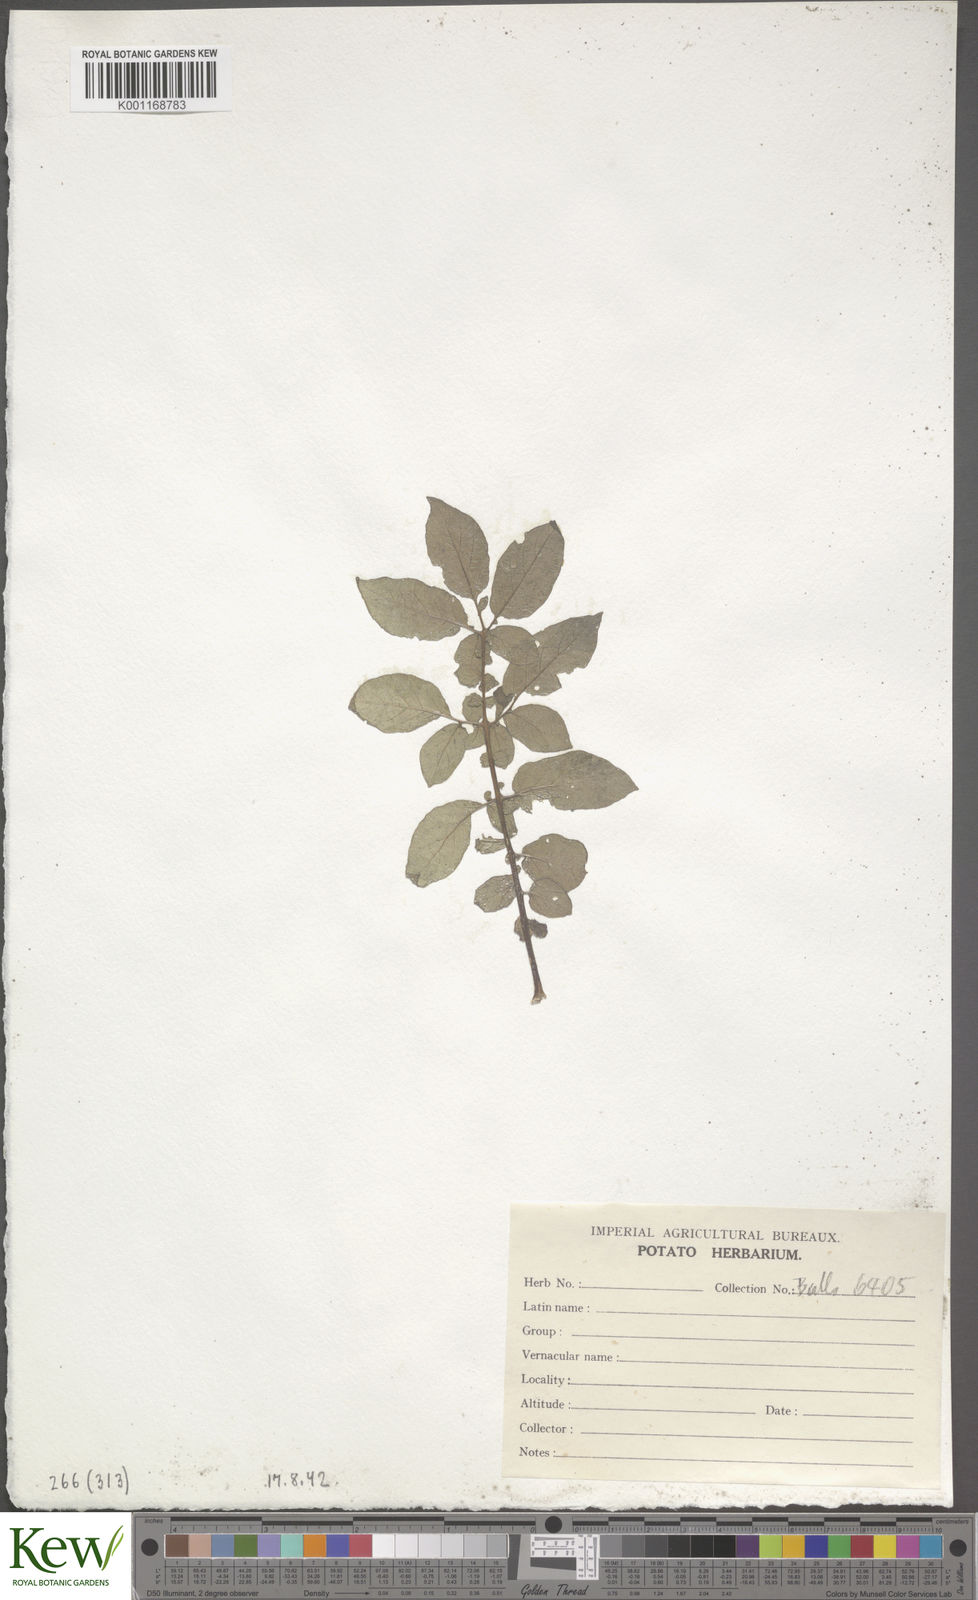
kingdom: Plantae
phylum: Tracheophyta
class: Magnoliopsida
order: Solanales
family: Solanaceae
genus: Solanum
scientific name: Solanum chaucha
